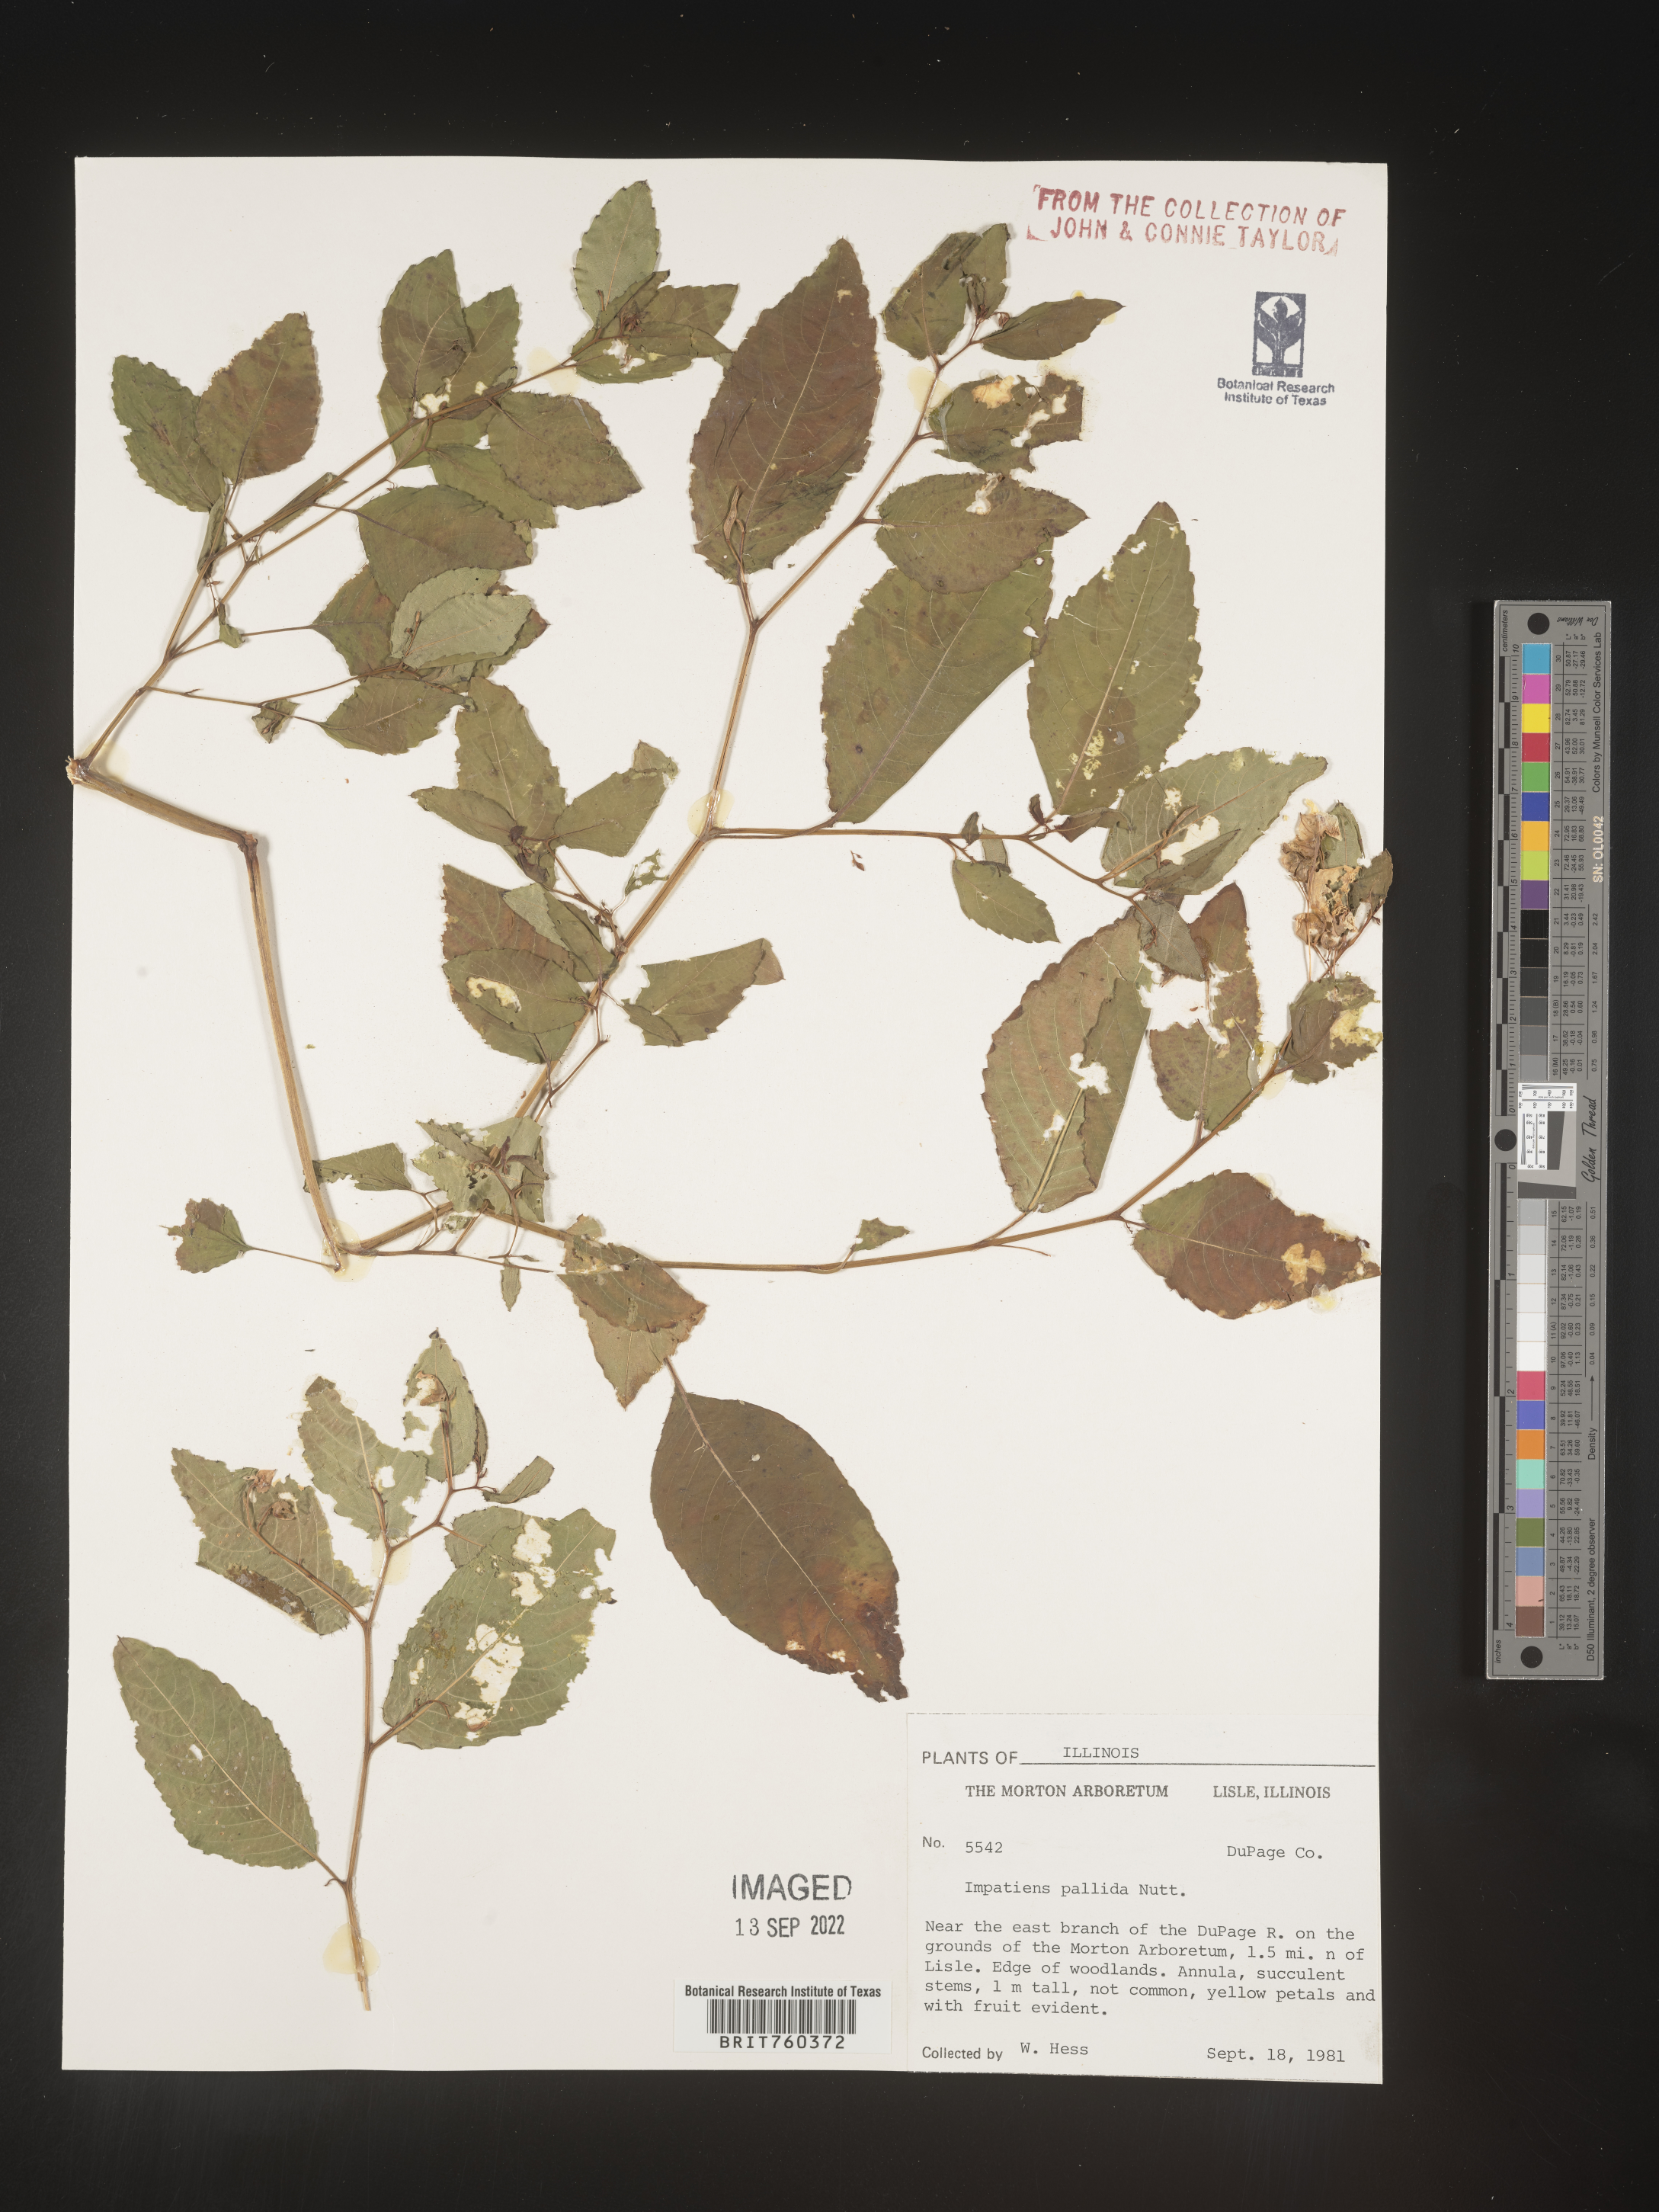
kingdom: Plantae
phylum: Tracheophyta
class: Magnoliopsida
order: Ericales
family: Balsaminaceae
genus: Impatiens
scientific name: Impatiens pallida
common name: Pale snapweed
